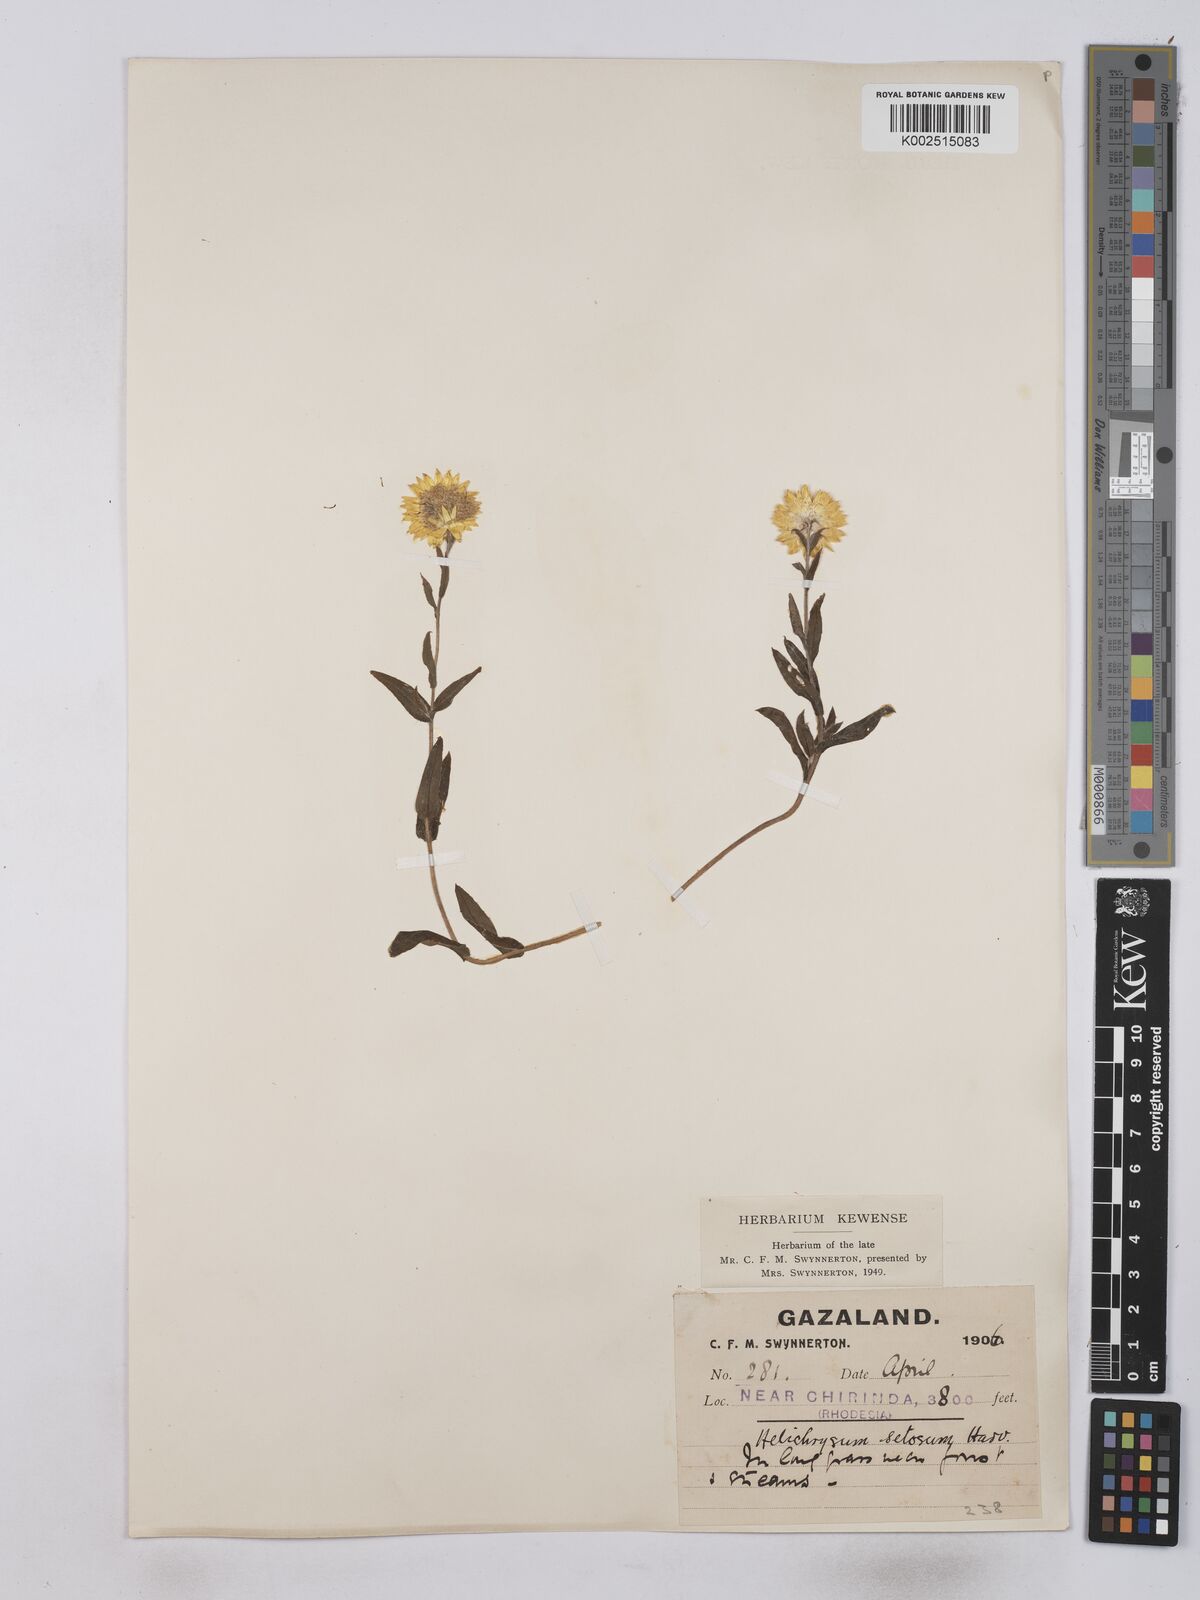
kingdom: Plantae
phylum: Tracheophyta
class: Magnoliopsida
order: Asterales
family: Asteraceae
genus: Helichrysum
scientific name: Helichrysum setosum
